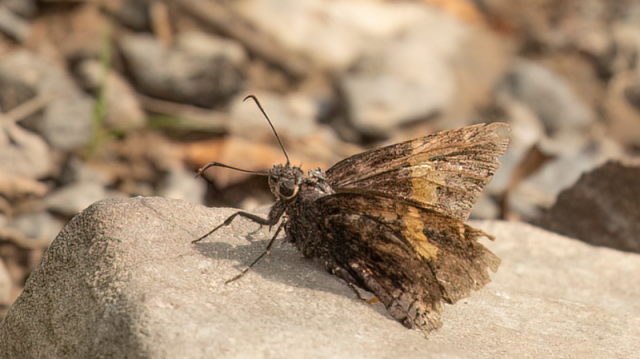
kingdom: Animalia
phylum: Arthropoda
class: Insecta
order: Lepidoptera
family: Hesperiidae
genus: Achalarus
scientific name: Achalarus lyciades
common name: Hoary Edge
